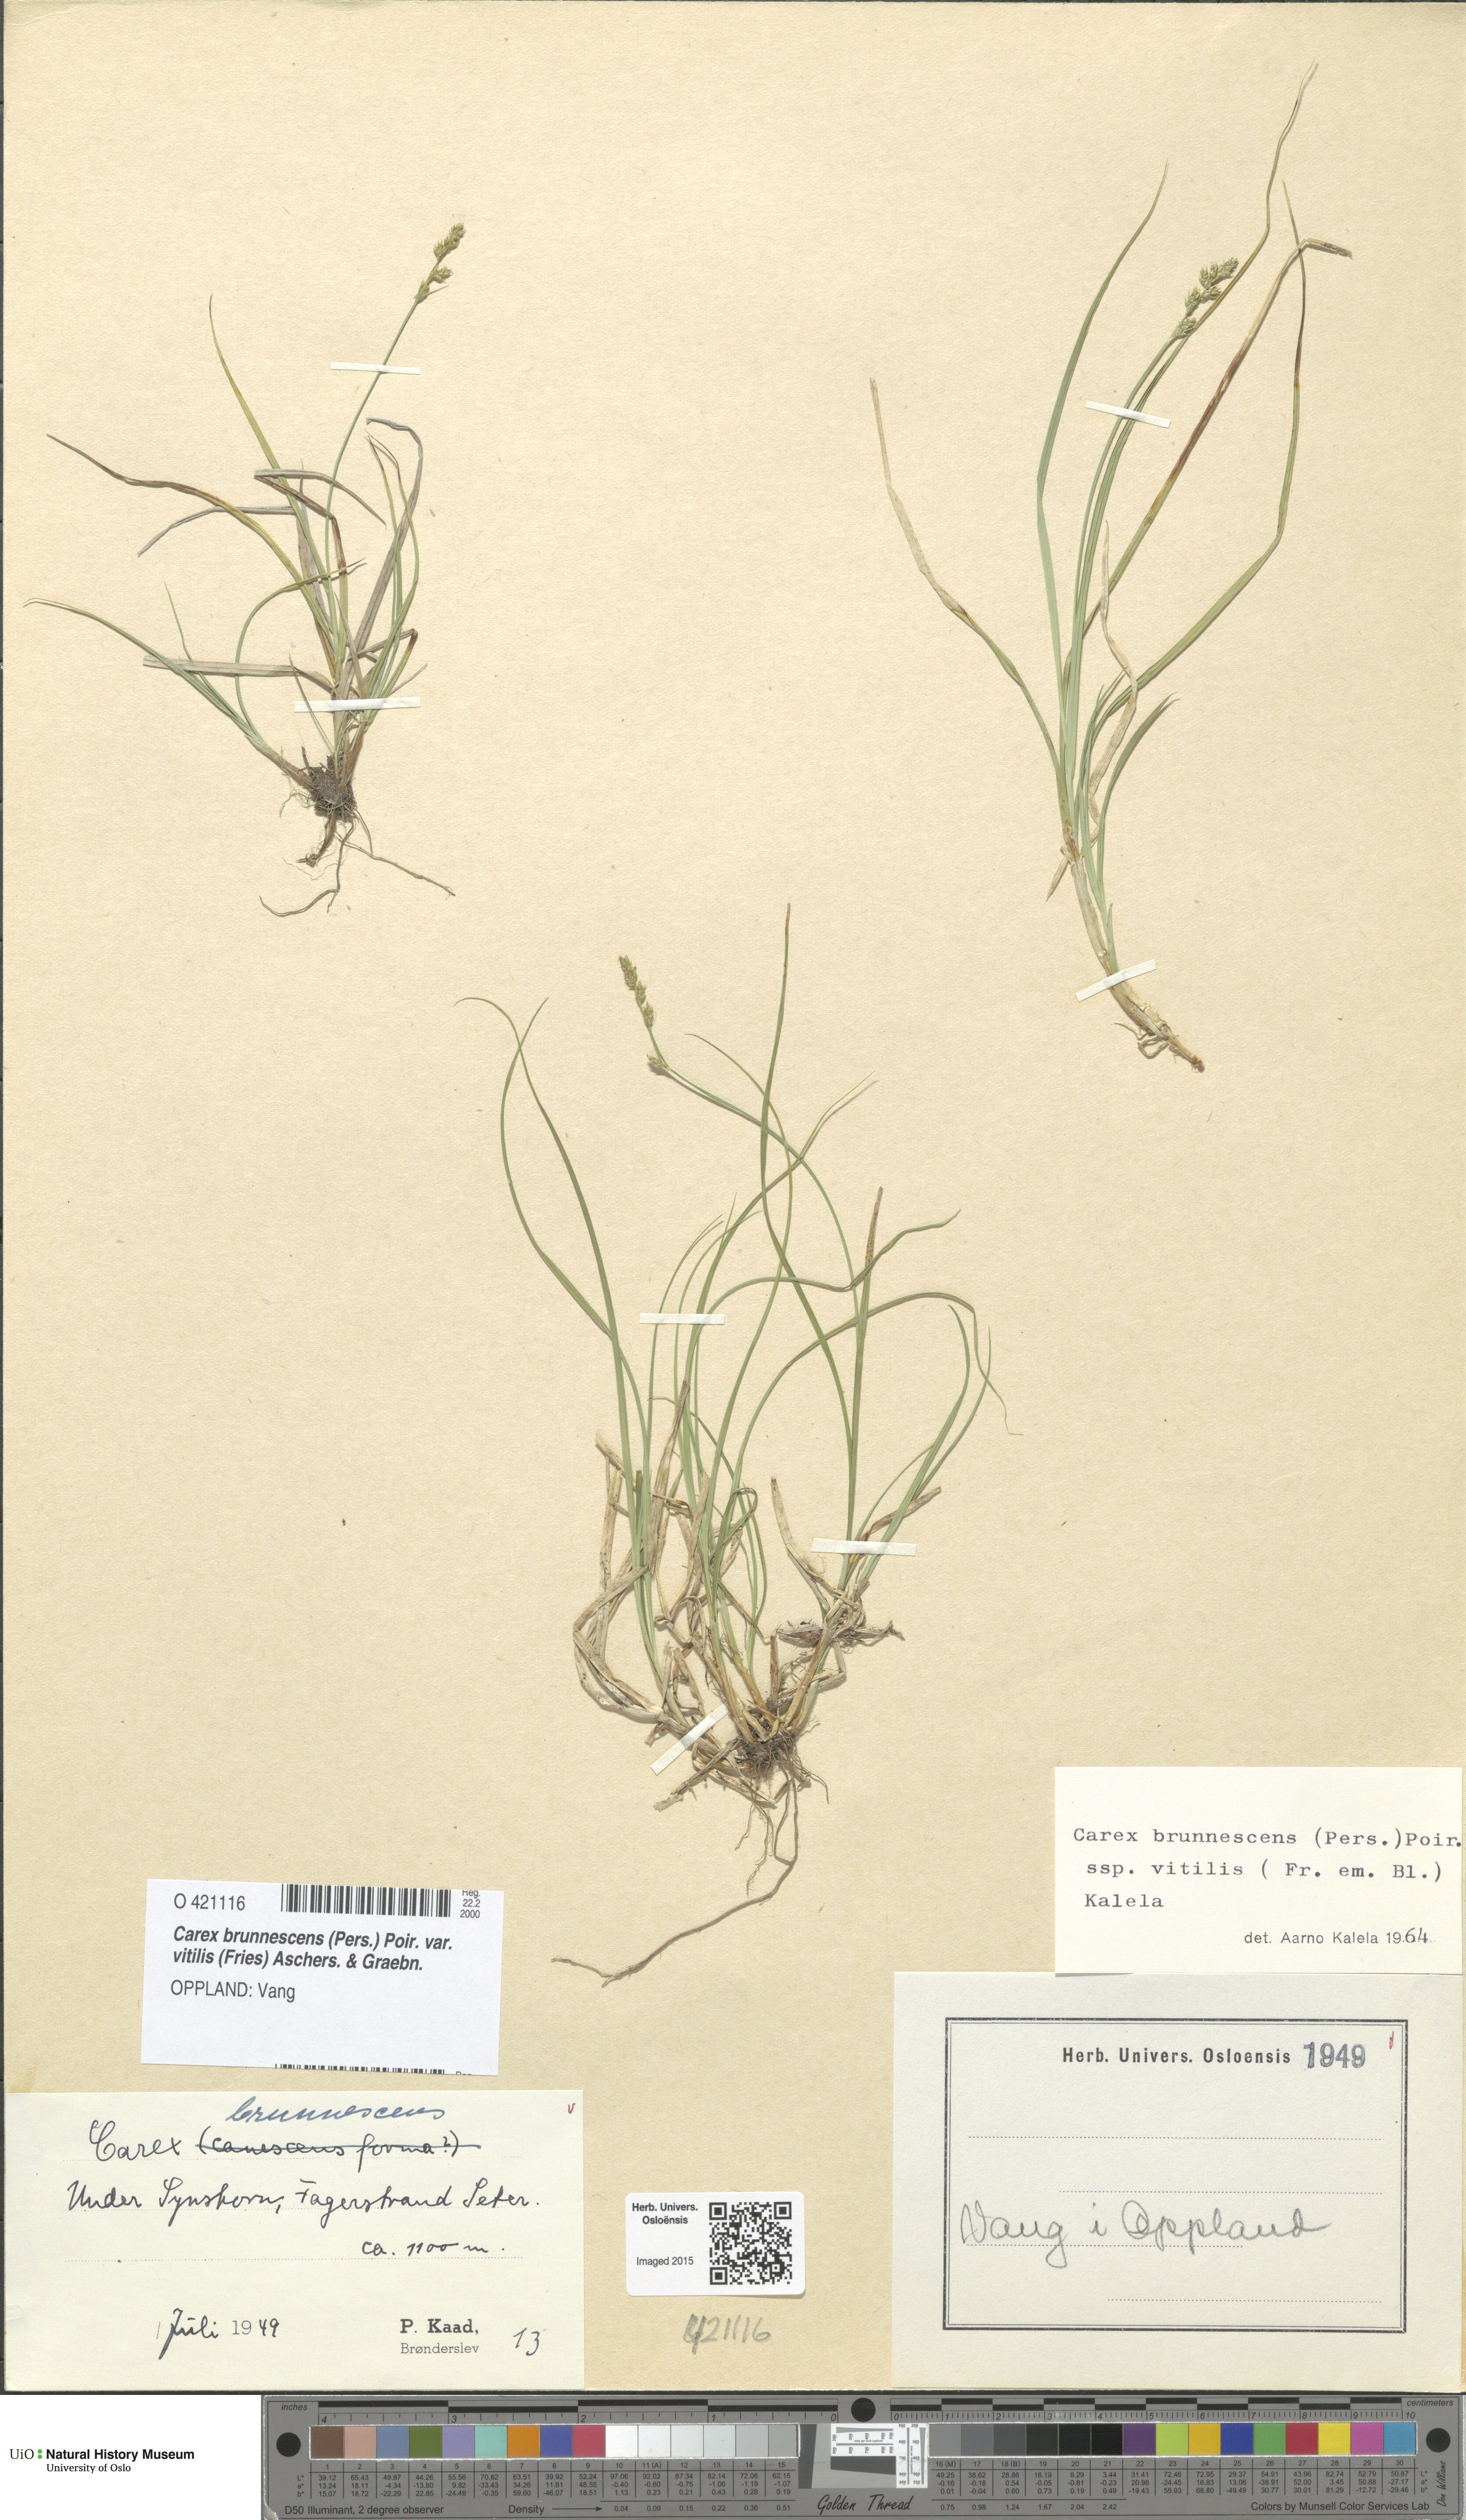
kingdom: Plantae
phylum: Tracheophyta
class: Liliopsida
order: Poales
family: Cyperaceae
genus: Carex
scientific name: Carex brunnescens
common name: Brown sedge
